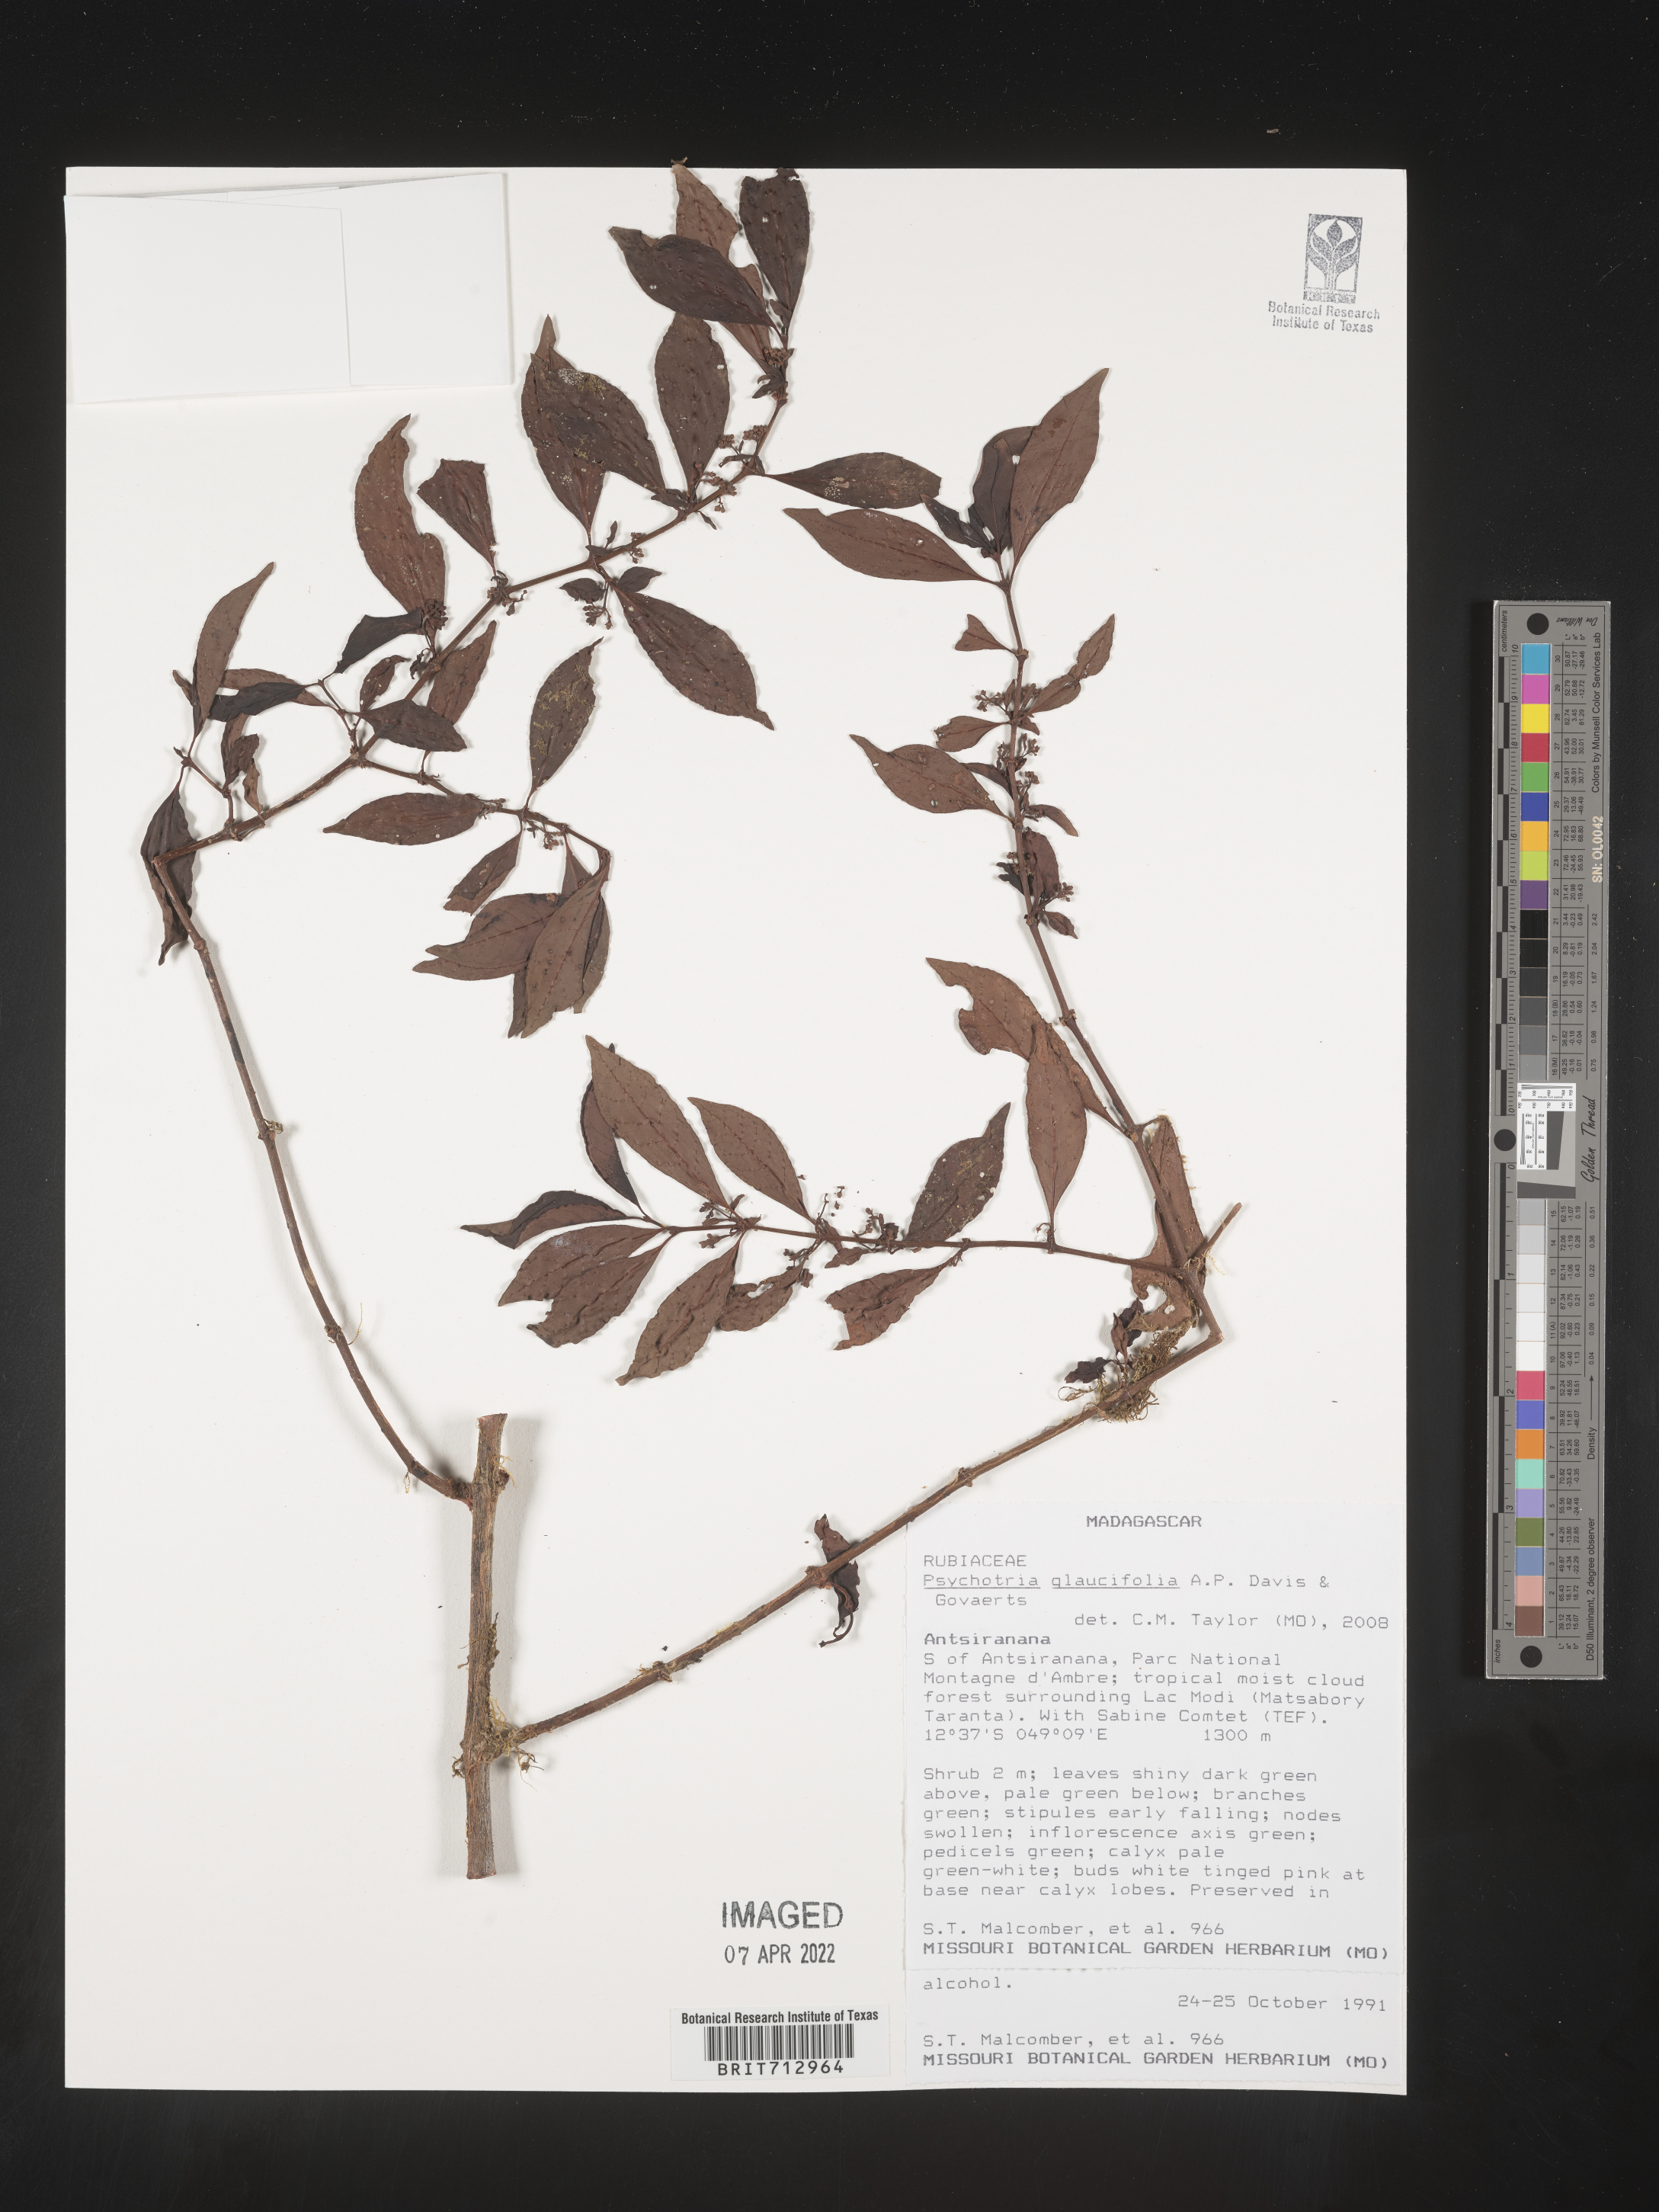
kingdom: Plantae
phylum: Tracheophyta
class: Magnoliopsida
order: Gentianales
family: Rubiaceae
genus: Psychotria
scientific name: Psychotria
